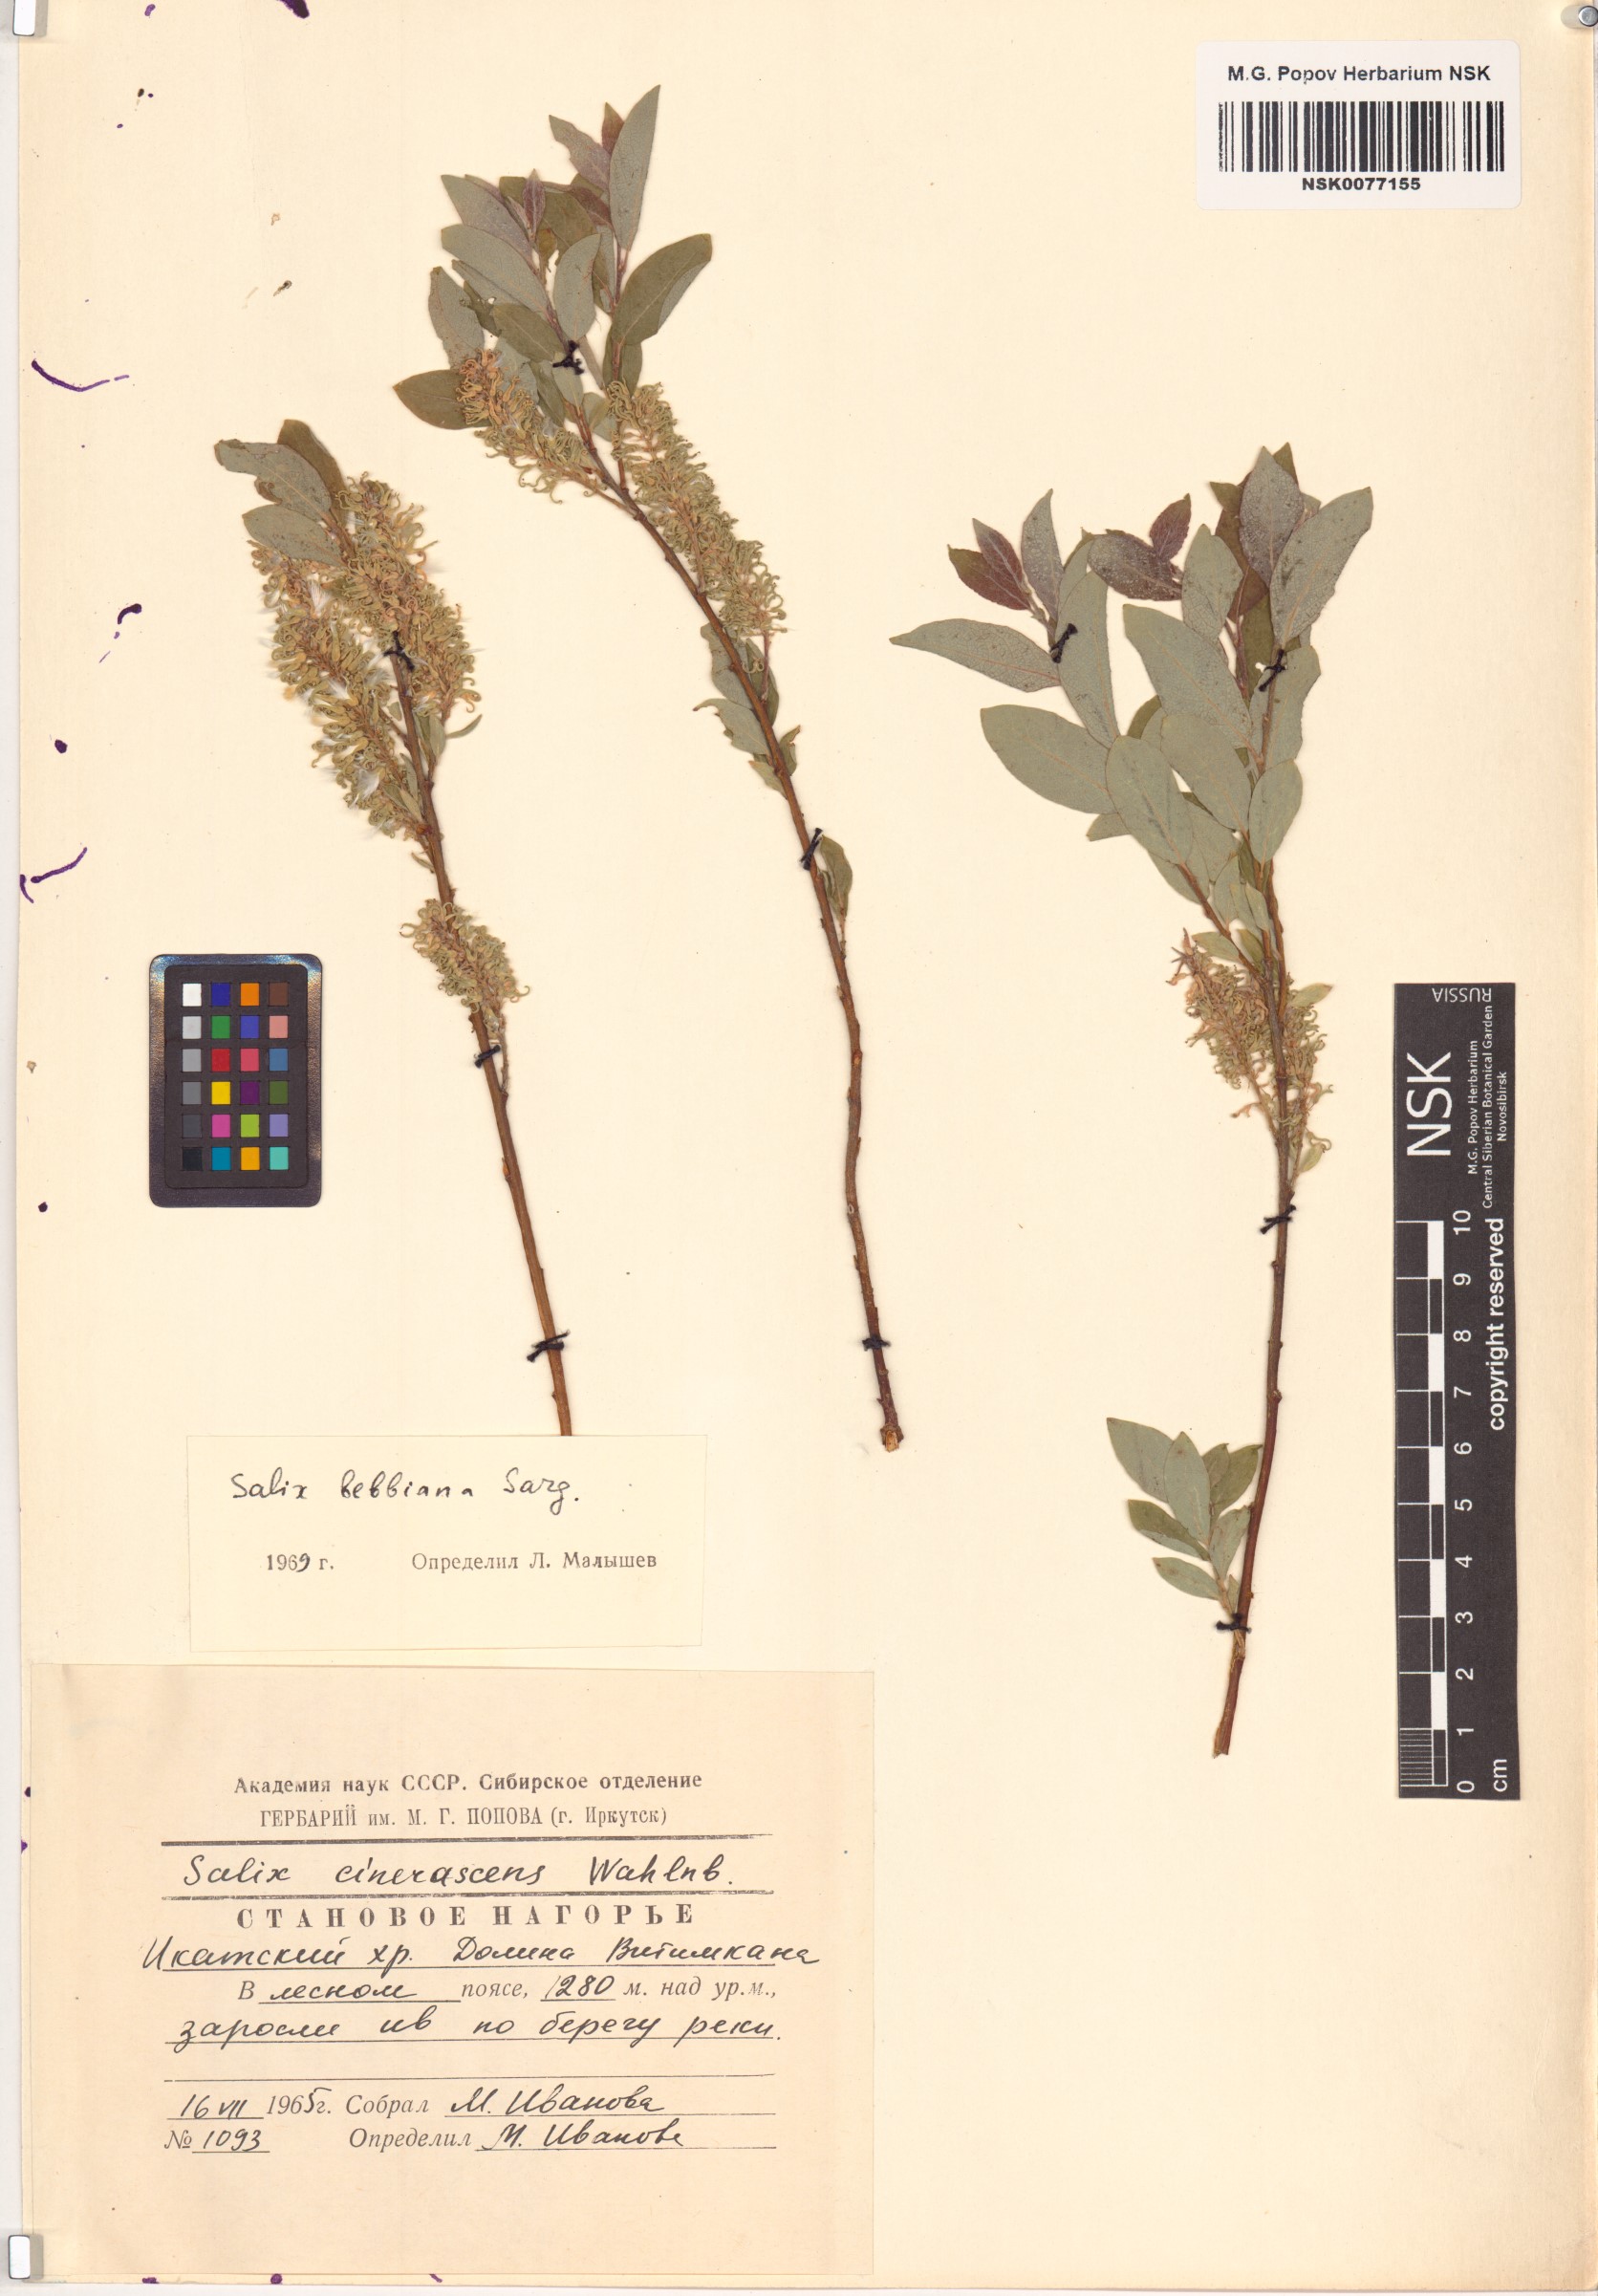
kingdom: Plantae
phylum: Tracheophyta
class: Magnoliopsida
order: Malpighiales
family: Salicaceae
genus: Salix
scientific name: Salix bebbiana
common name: Bebb's willow
